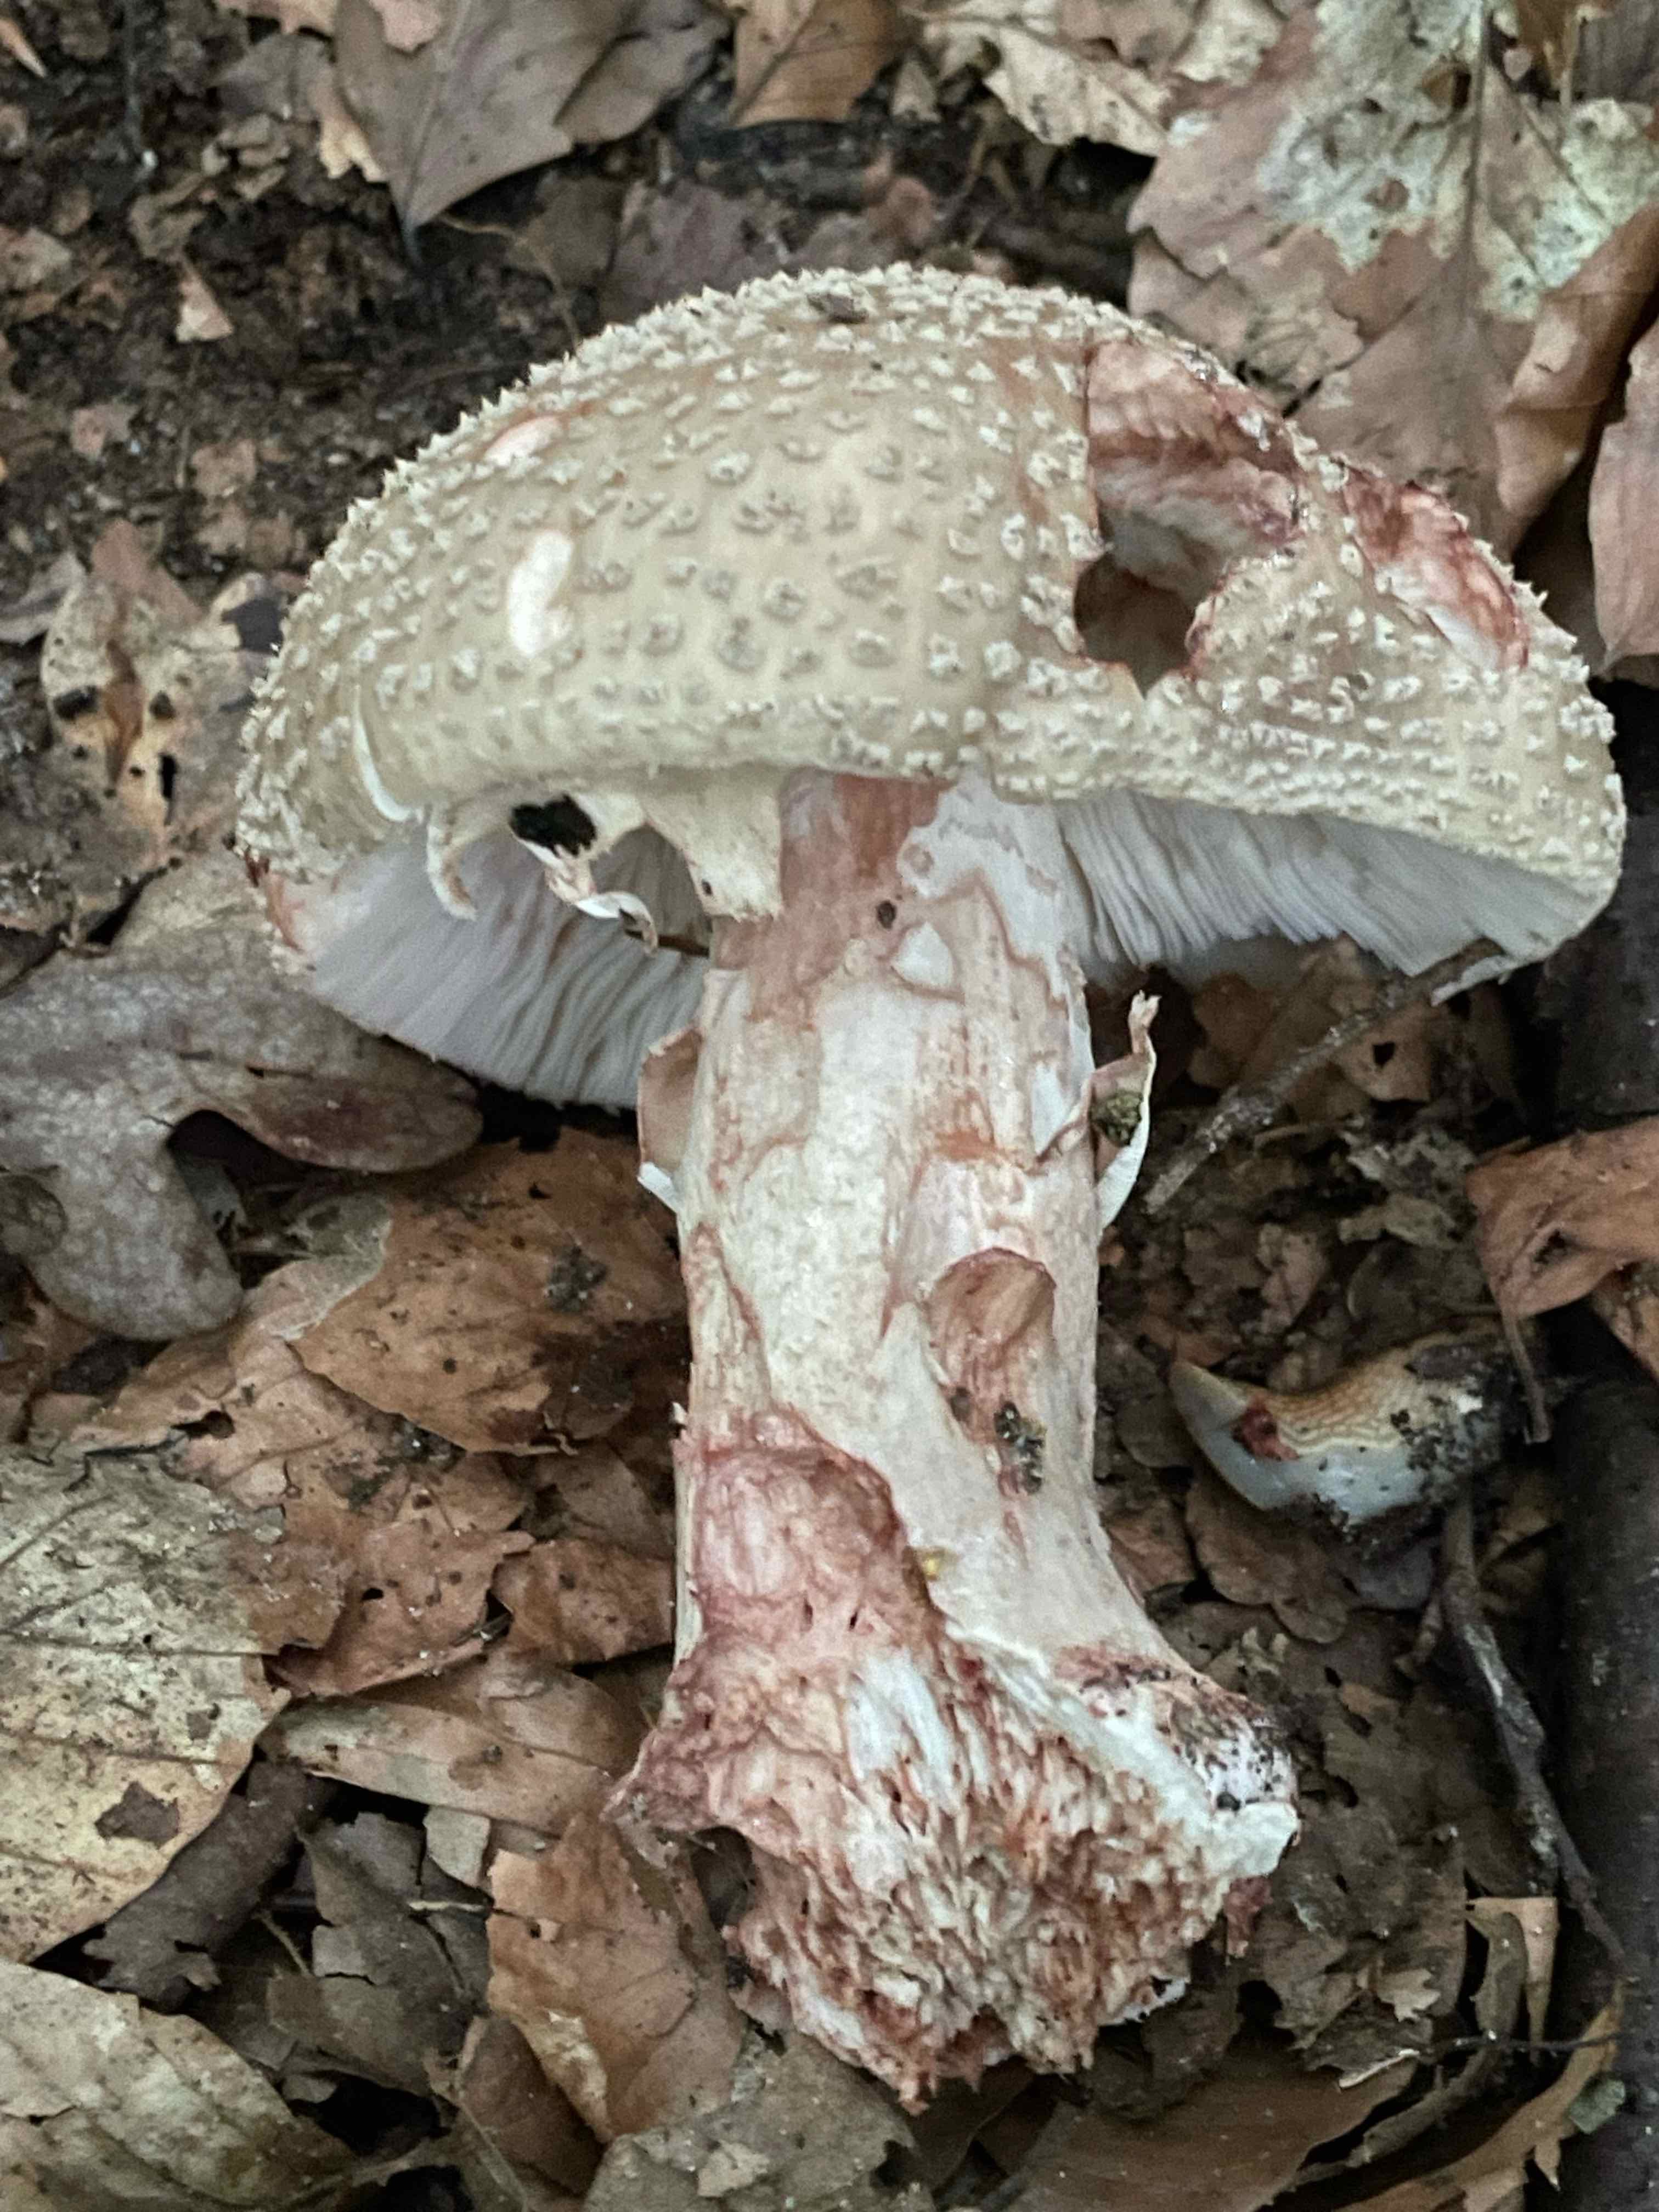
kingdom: Fungi
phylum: Basidiomycota
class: Agaricomycetes
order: Agaricales
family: Amanitaceae
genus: Amanita
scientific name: Amanita rubescens
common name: rødmende fluesvamp
